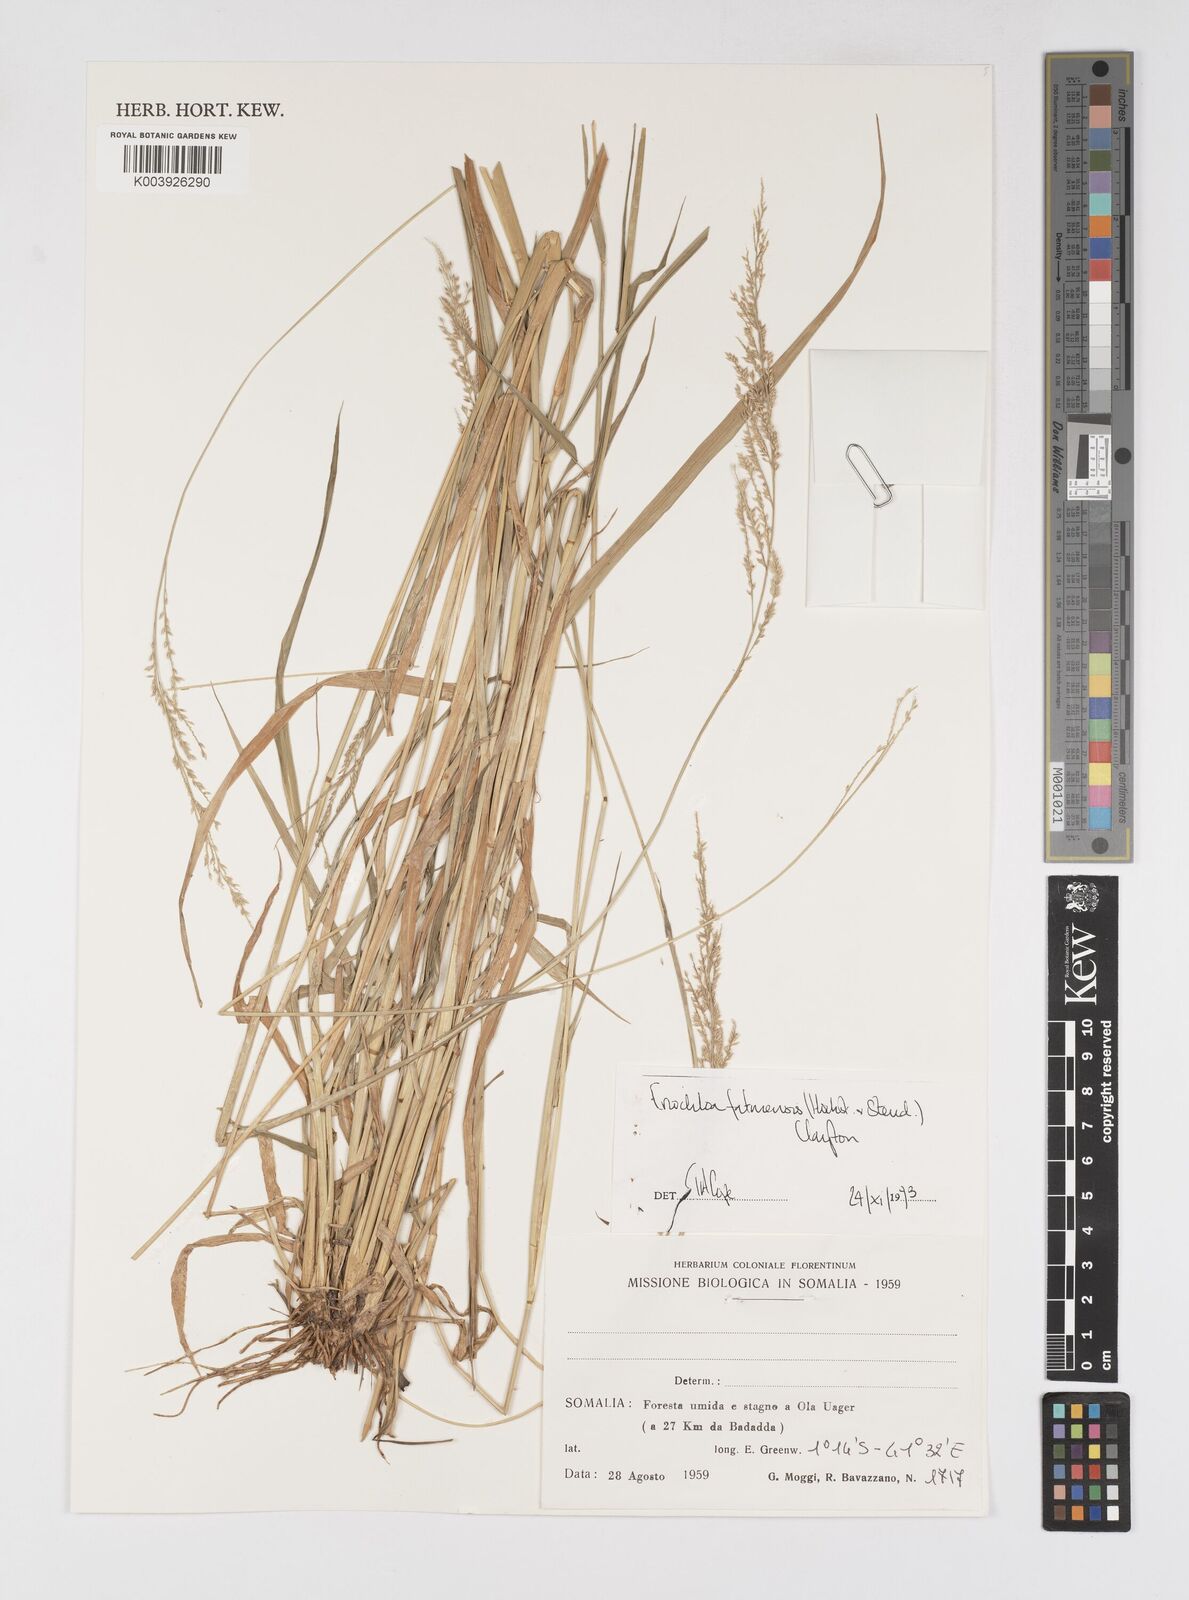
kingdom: Plantae
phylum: Tracheophyta
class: Liliopsida
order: Poales
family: Poaceae
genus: Eriochloa
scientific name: Eriochloa barbatus
